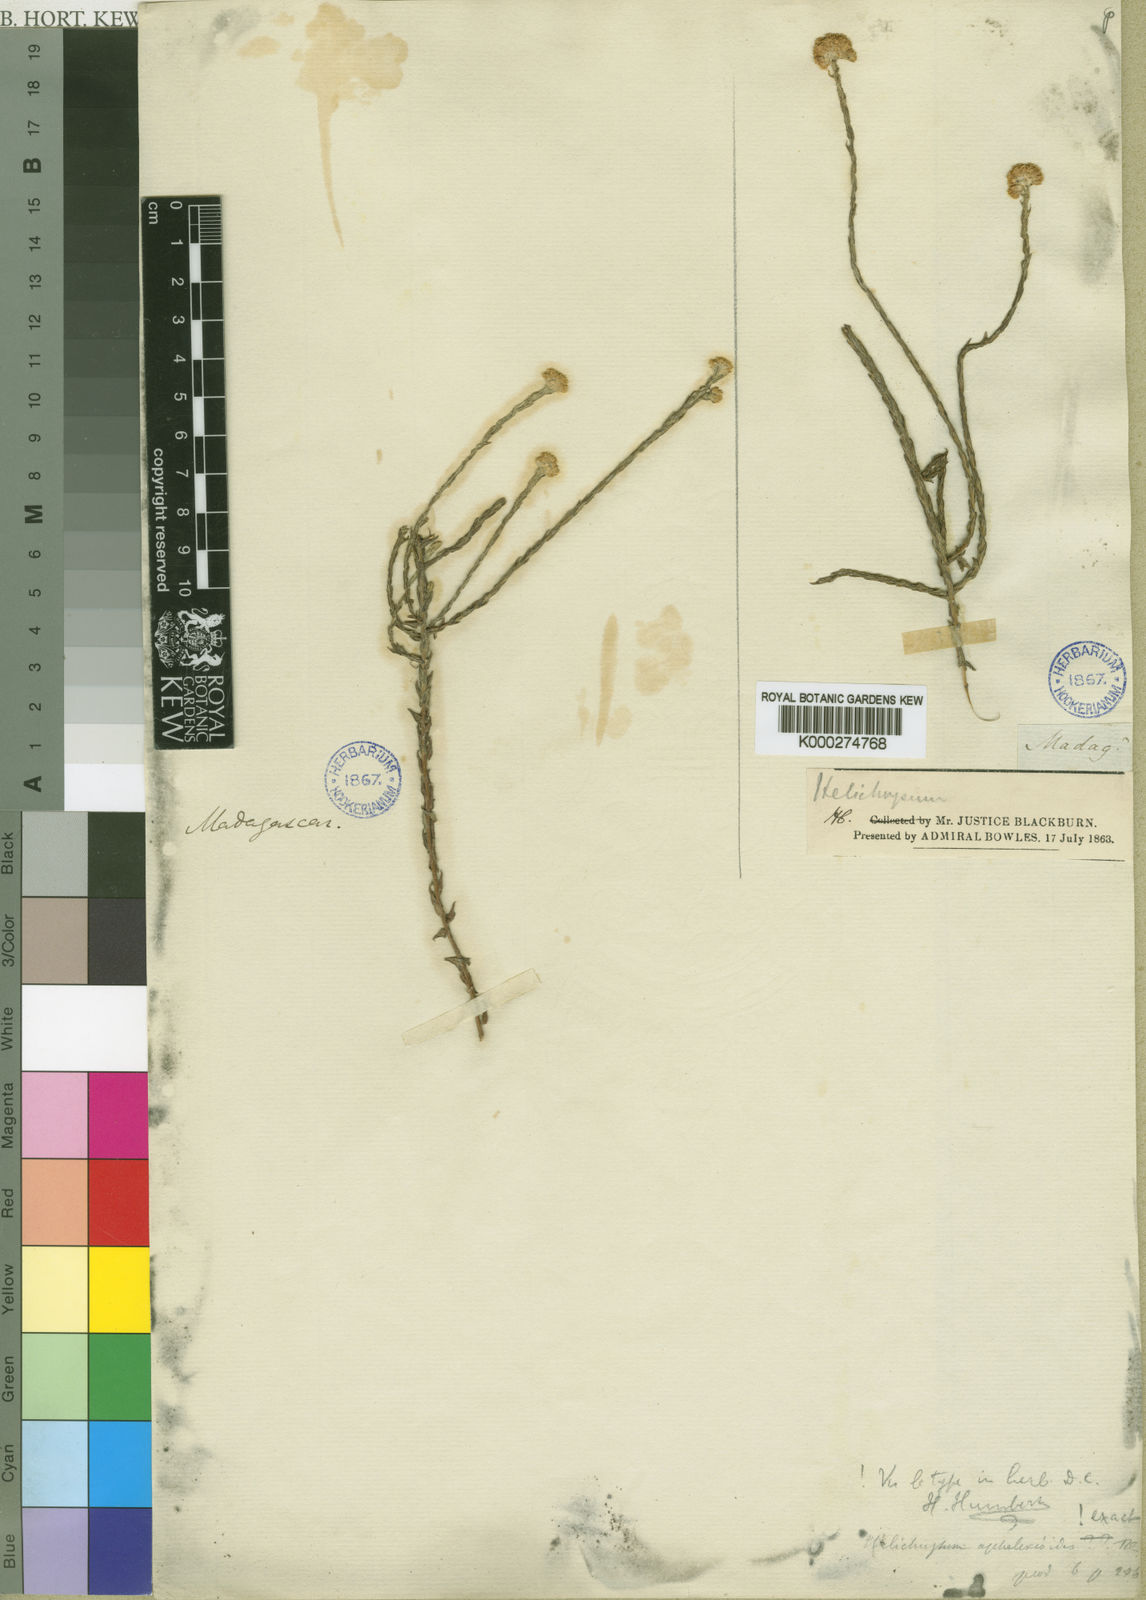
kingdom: Plantae
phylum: Tracheophyta
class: Magnoliopsida
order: Asterales
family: Asteraceae
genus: Helichrysum
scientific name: Helichrysum aphelexioides
